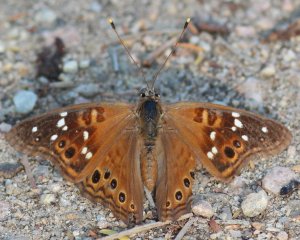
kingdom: Animalia
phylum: Arthropoda
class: Insecta
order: Lepidoptera
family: Nymphalidae
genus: Asterocampa
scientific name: Asterocampa leilia
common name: Empress Leilia
